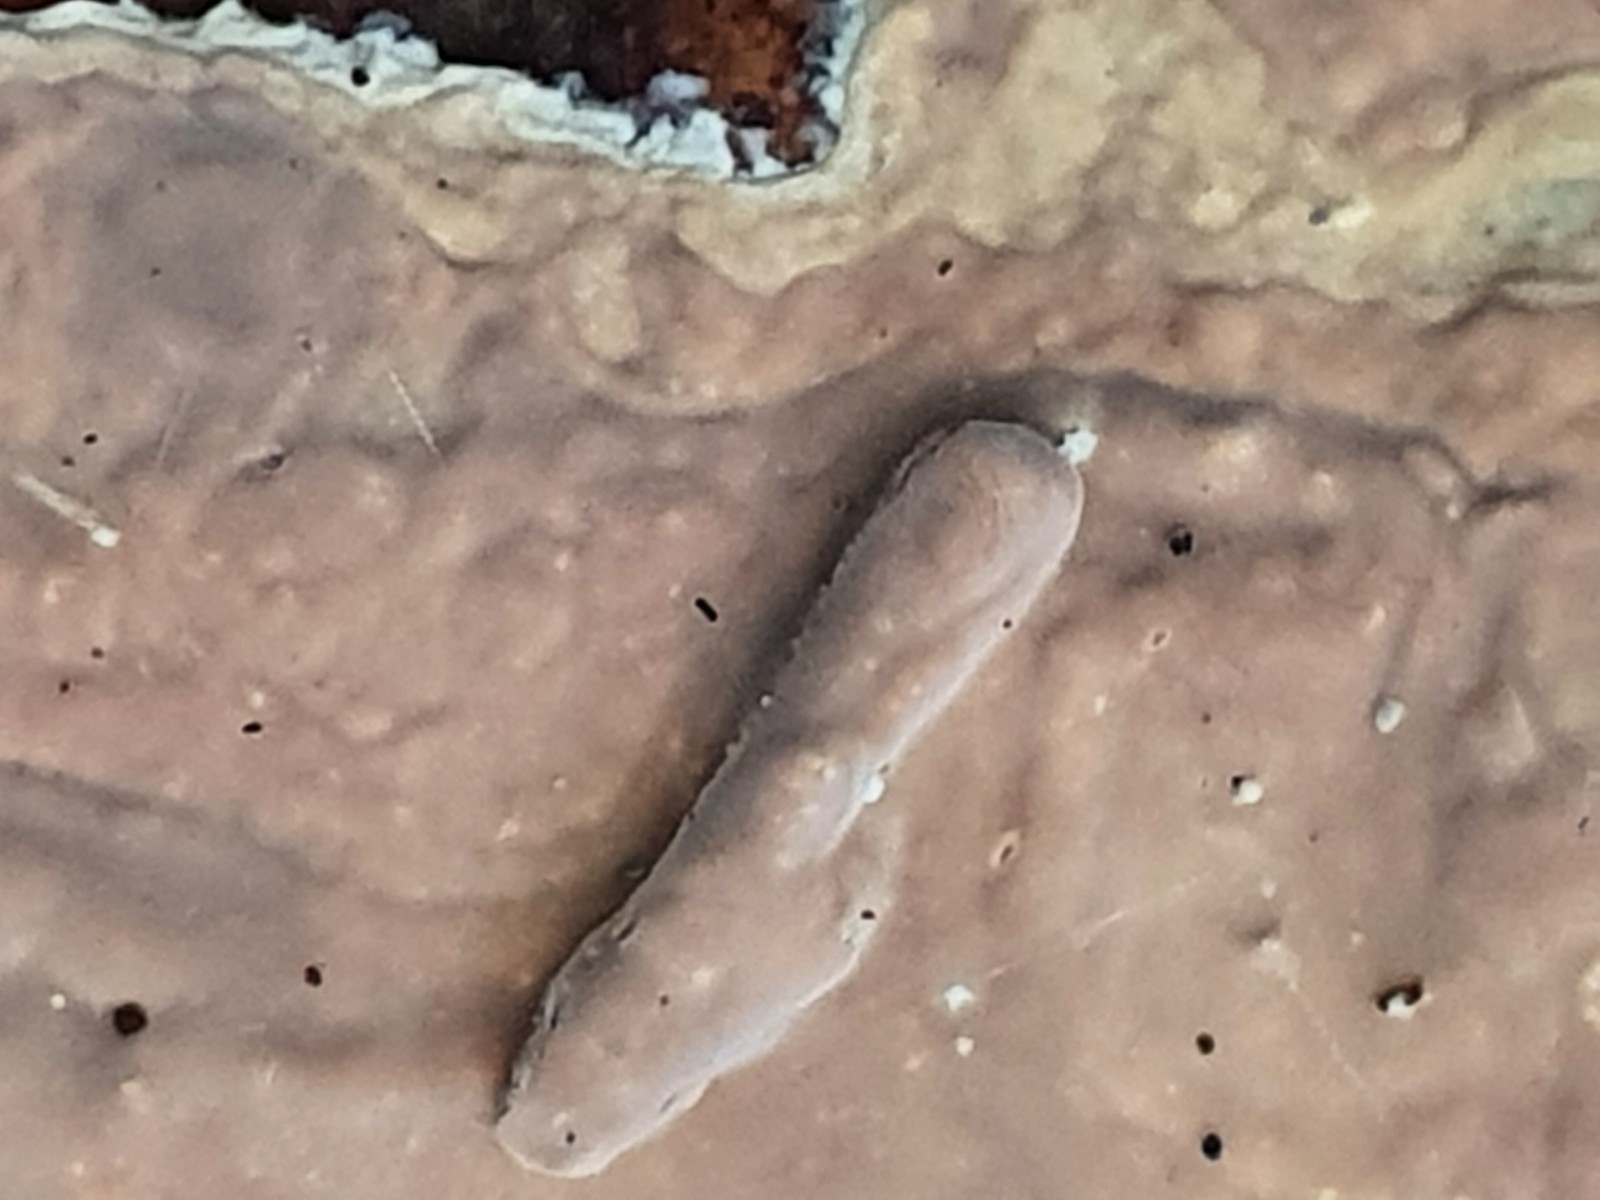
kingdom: Fungi
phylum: Basidiomycota
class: Agaricomycetes
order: Agaricales
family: Physalacriaceae
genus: Cylindrobasidium
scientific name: Cylindrobasidium evolvens
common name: sprækkehinde
